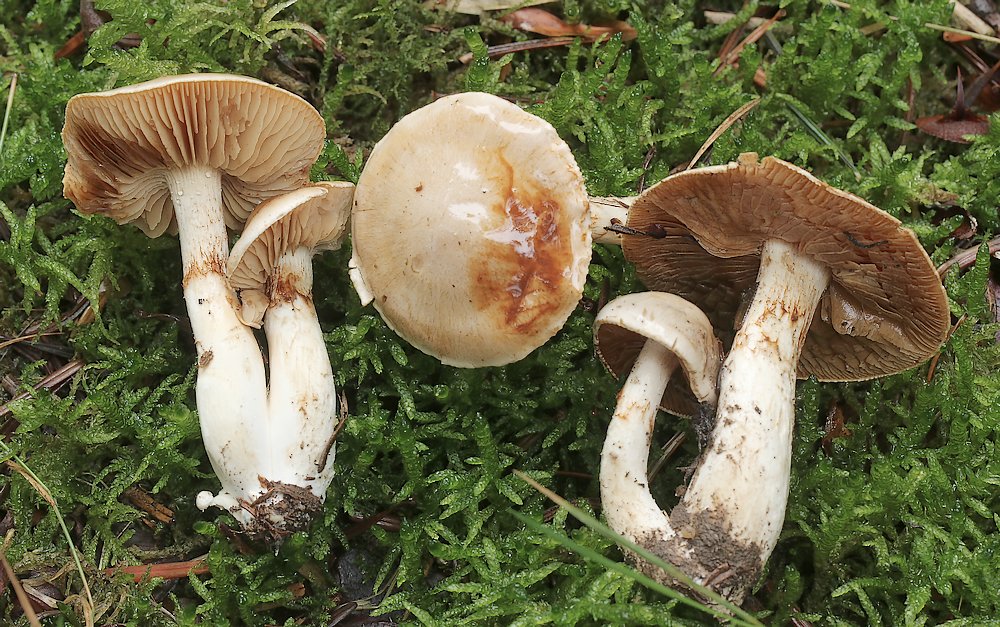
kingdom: Fungi
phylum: Basidiomycota
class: Agaricomycetes
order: Agaricales
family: Cortinariaceae
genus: Cortinarius
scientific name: Cortinarius
